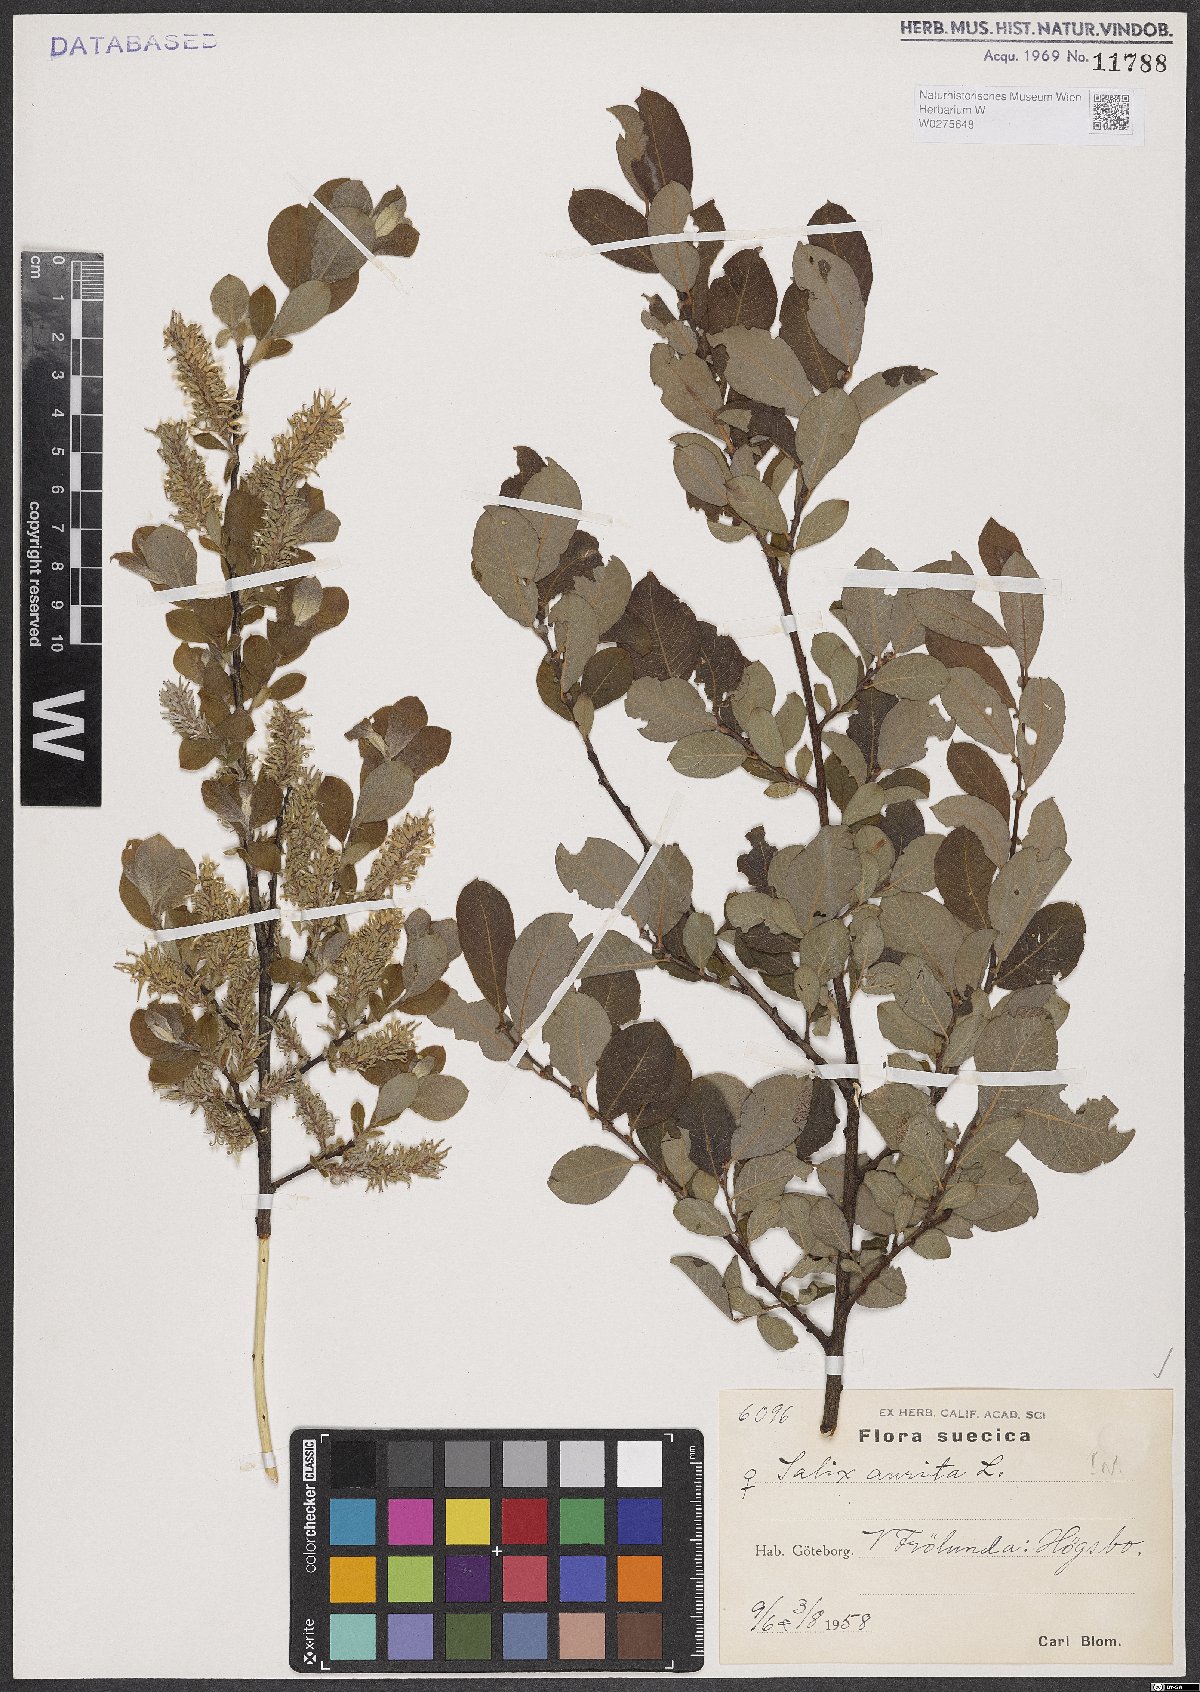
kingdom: Plantae
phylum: Tracheophyta
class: Magnoliopsida
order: Malpighiales
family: Salicaceae
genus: Salix
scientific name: Salix aurita
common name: Eared willow
